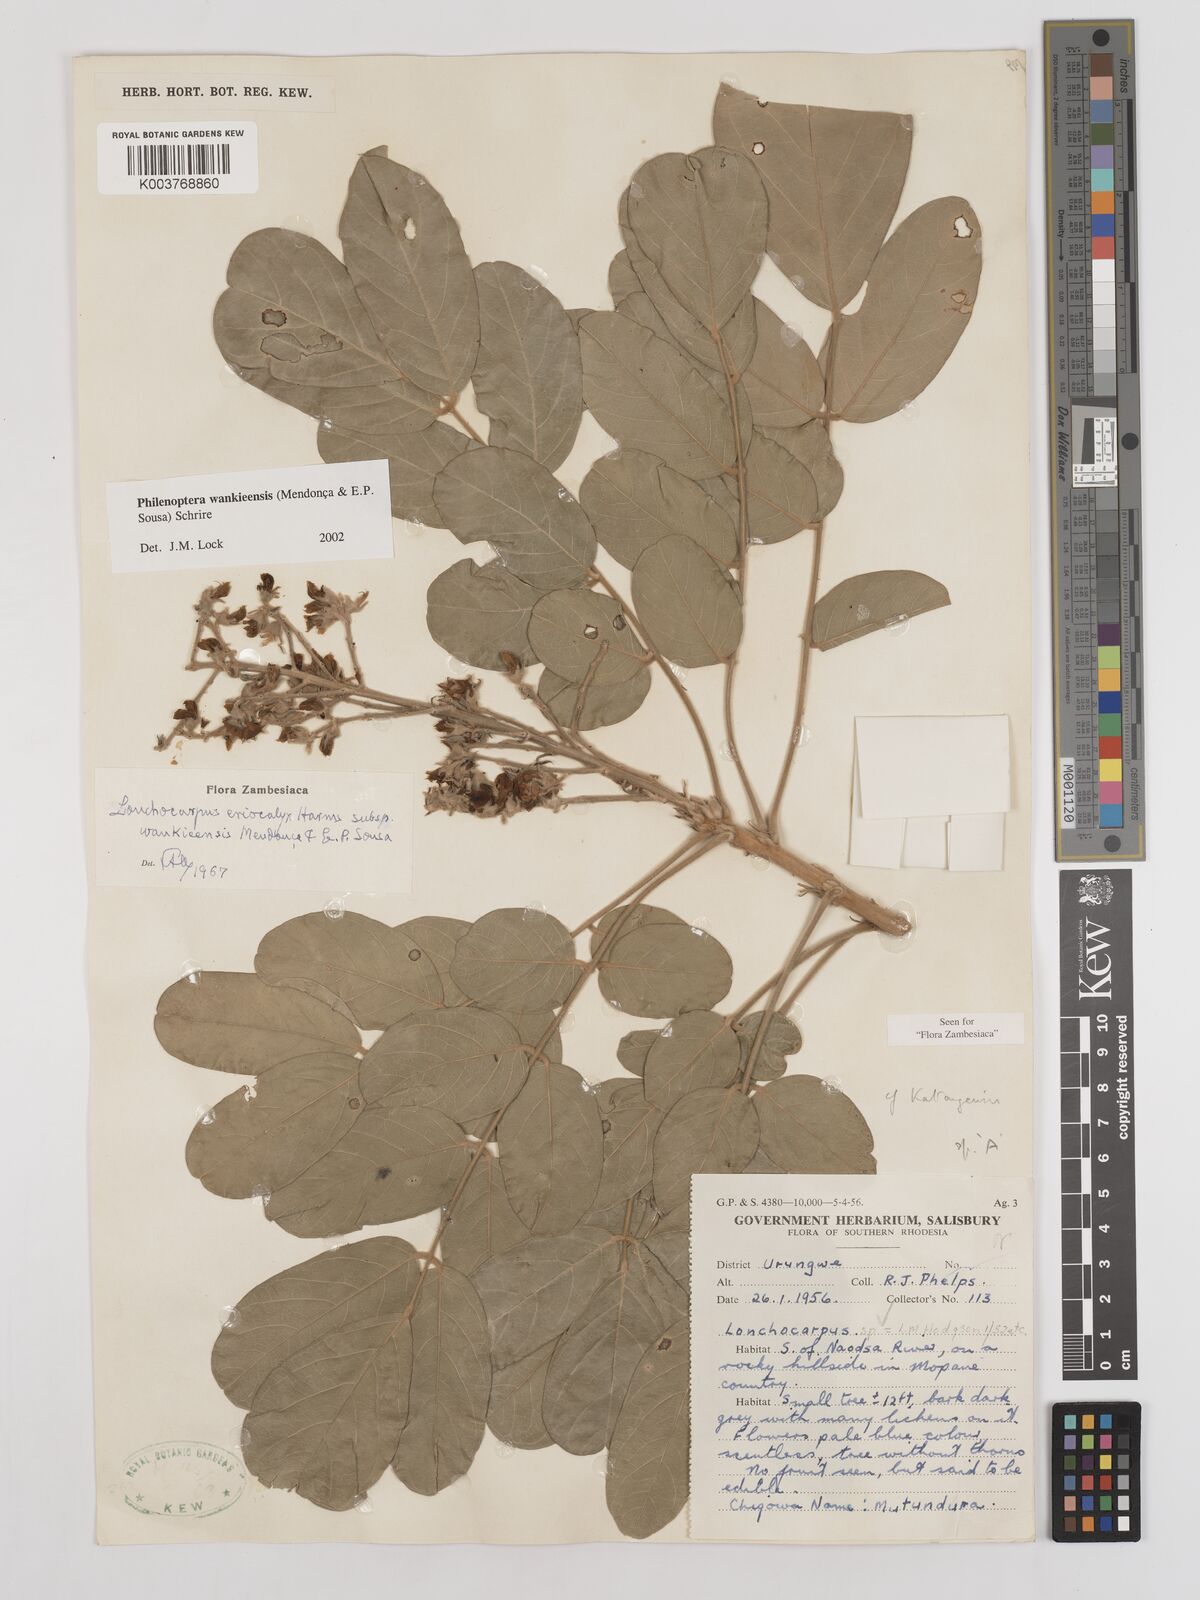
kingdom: Plantae
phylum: Tracheophyta
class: Magnoliopsida
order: Fabales
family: Fabaceae
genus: Philenoptera
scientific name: Philenoptera wankieensis
